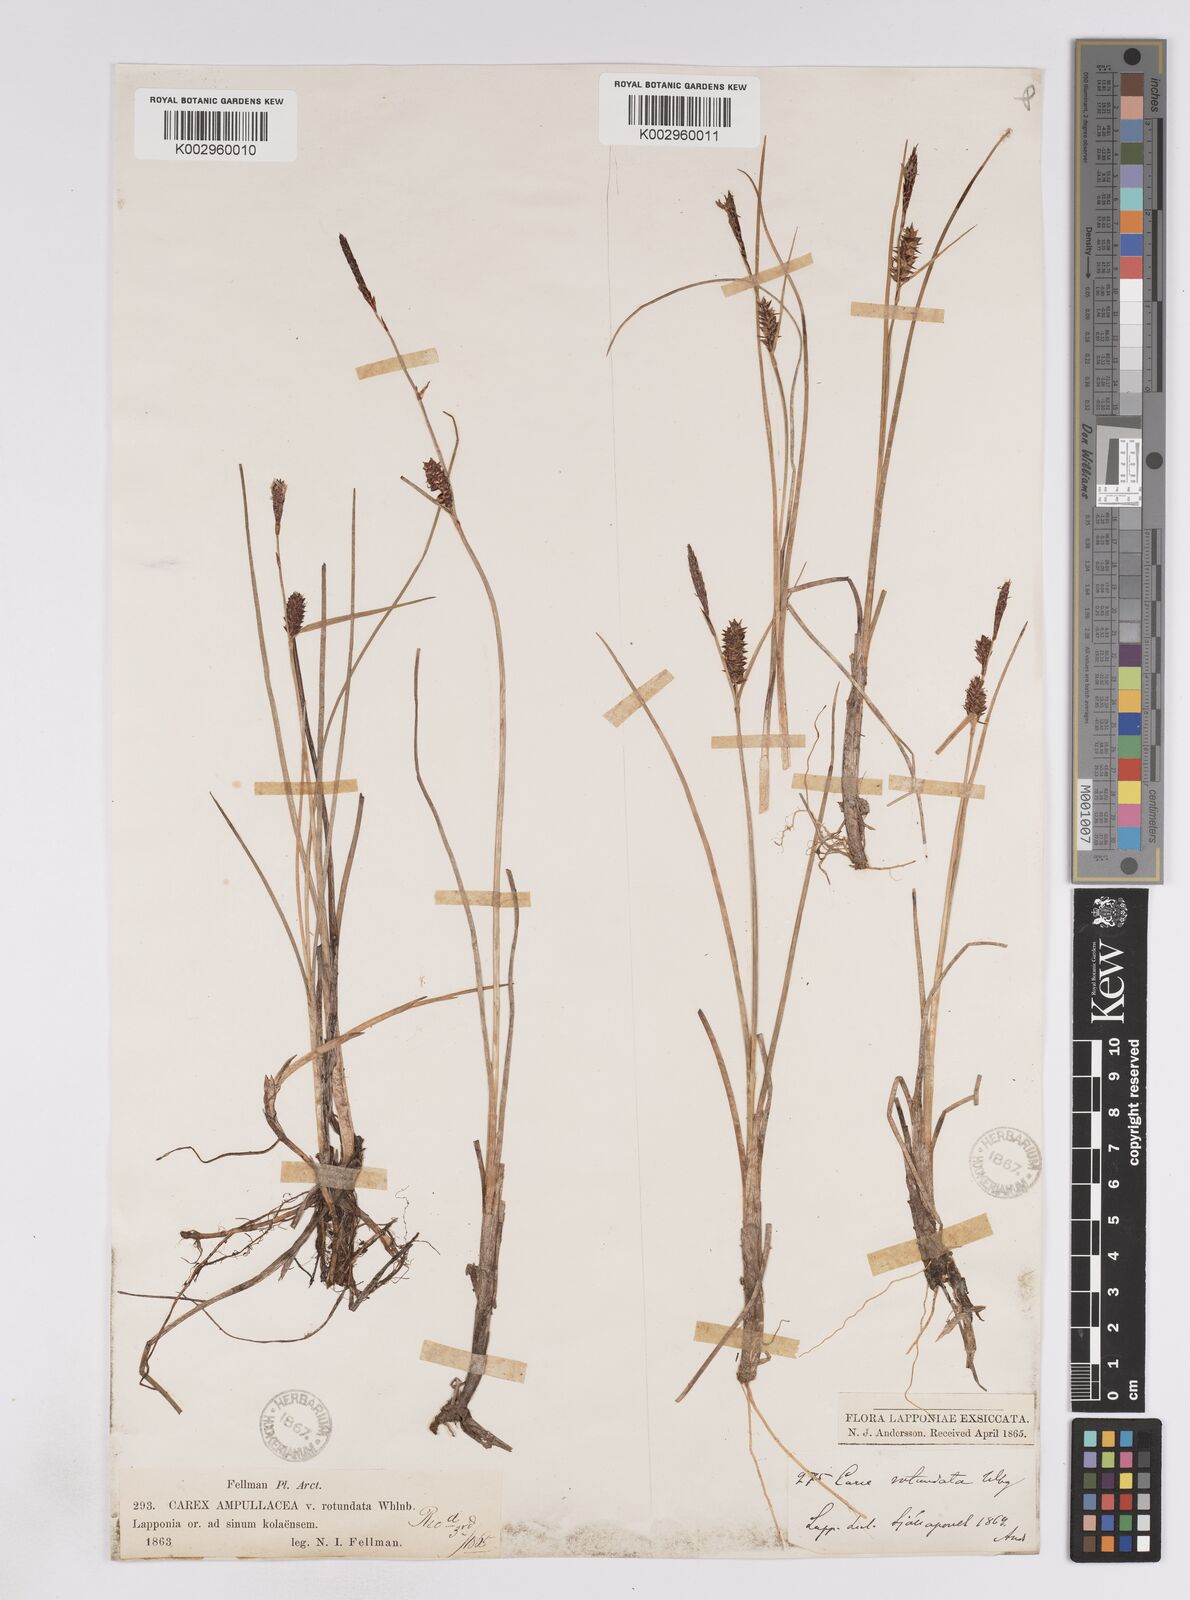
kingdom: Plantae
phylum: Tracheophyta
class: Liliopsida
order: Poales
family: Cyperaceae
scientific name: Cyperaceae
